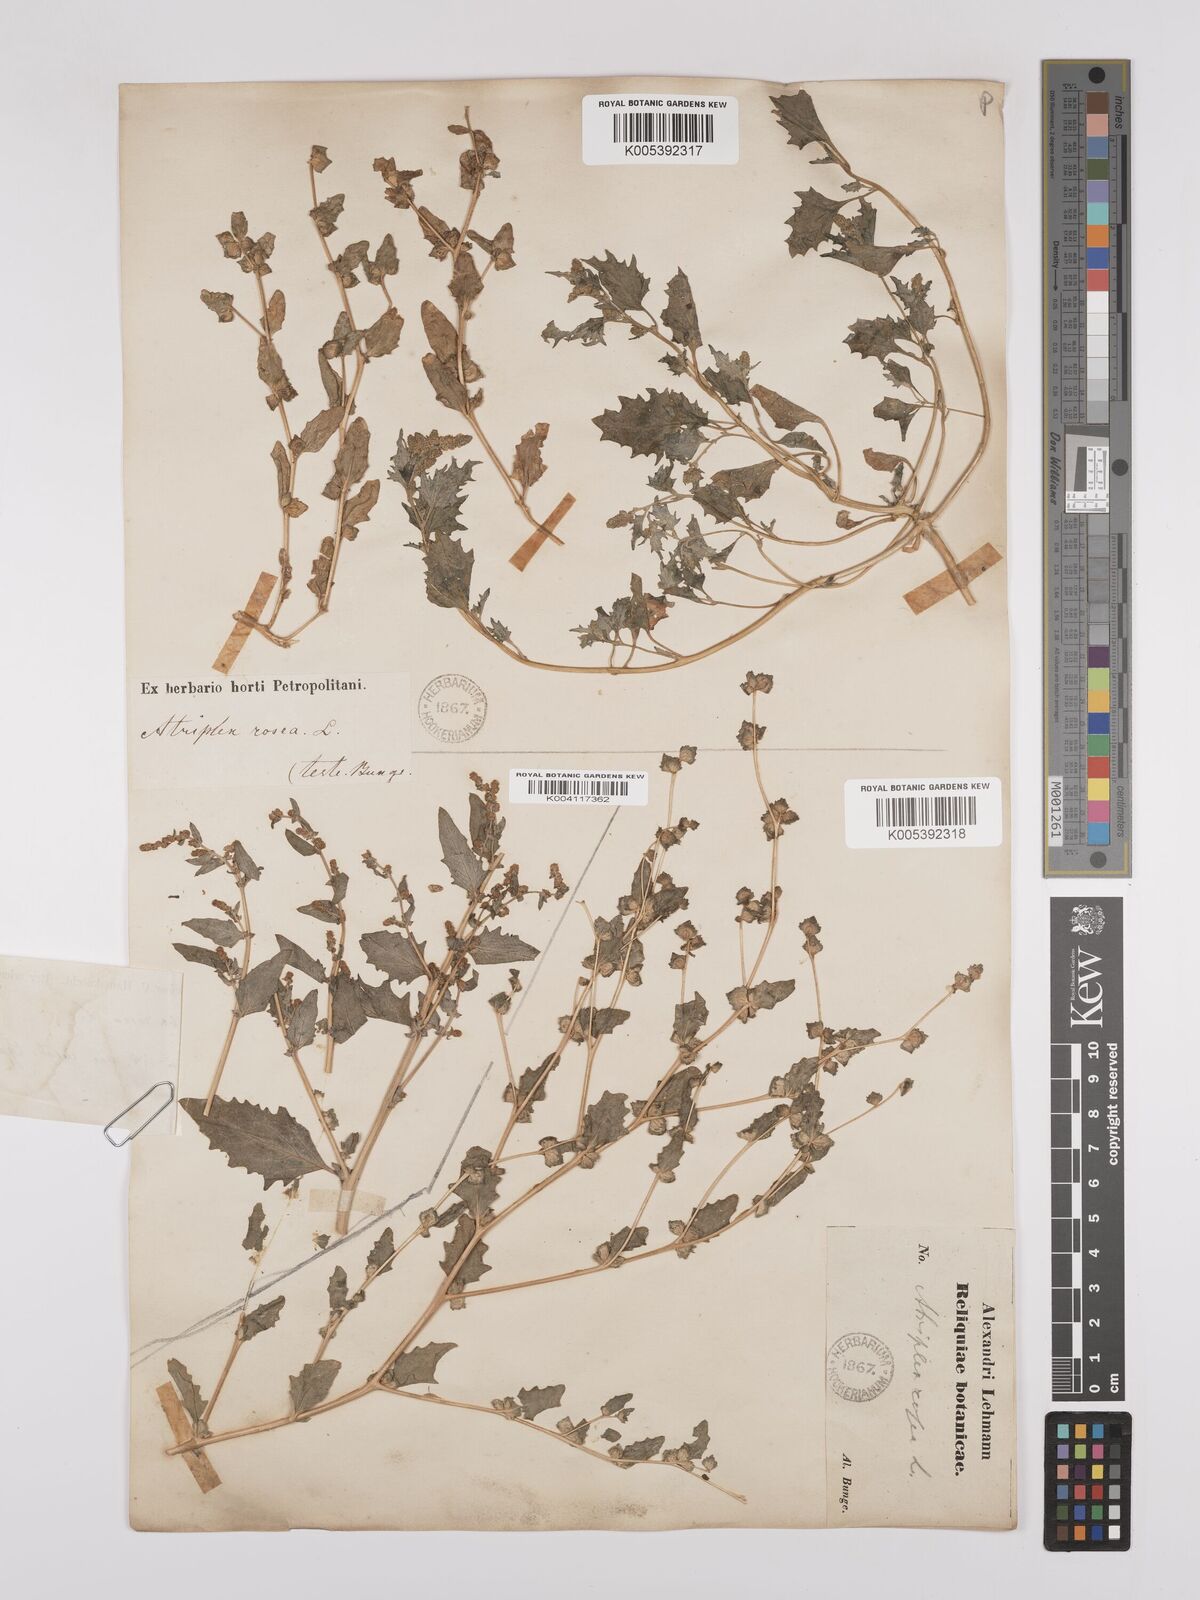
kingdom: Plantae
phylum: Tracheophyta
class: Magnoliopsida
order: Caryophyllales
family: Amaranthaceae
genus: Atriplex
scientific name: Atriplex
